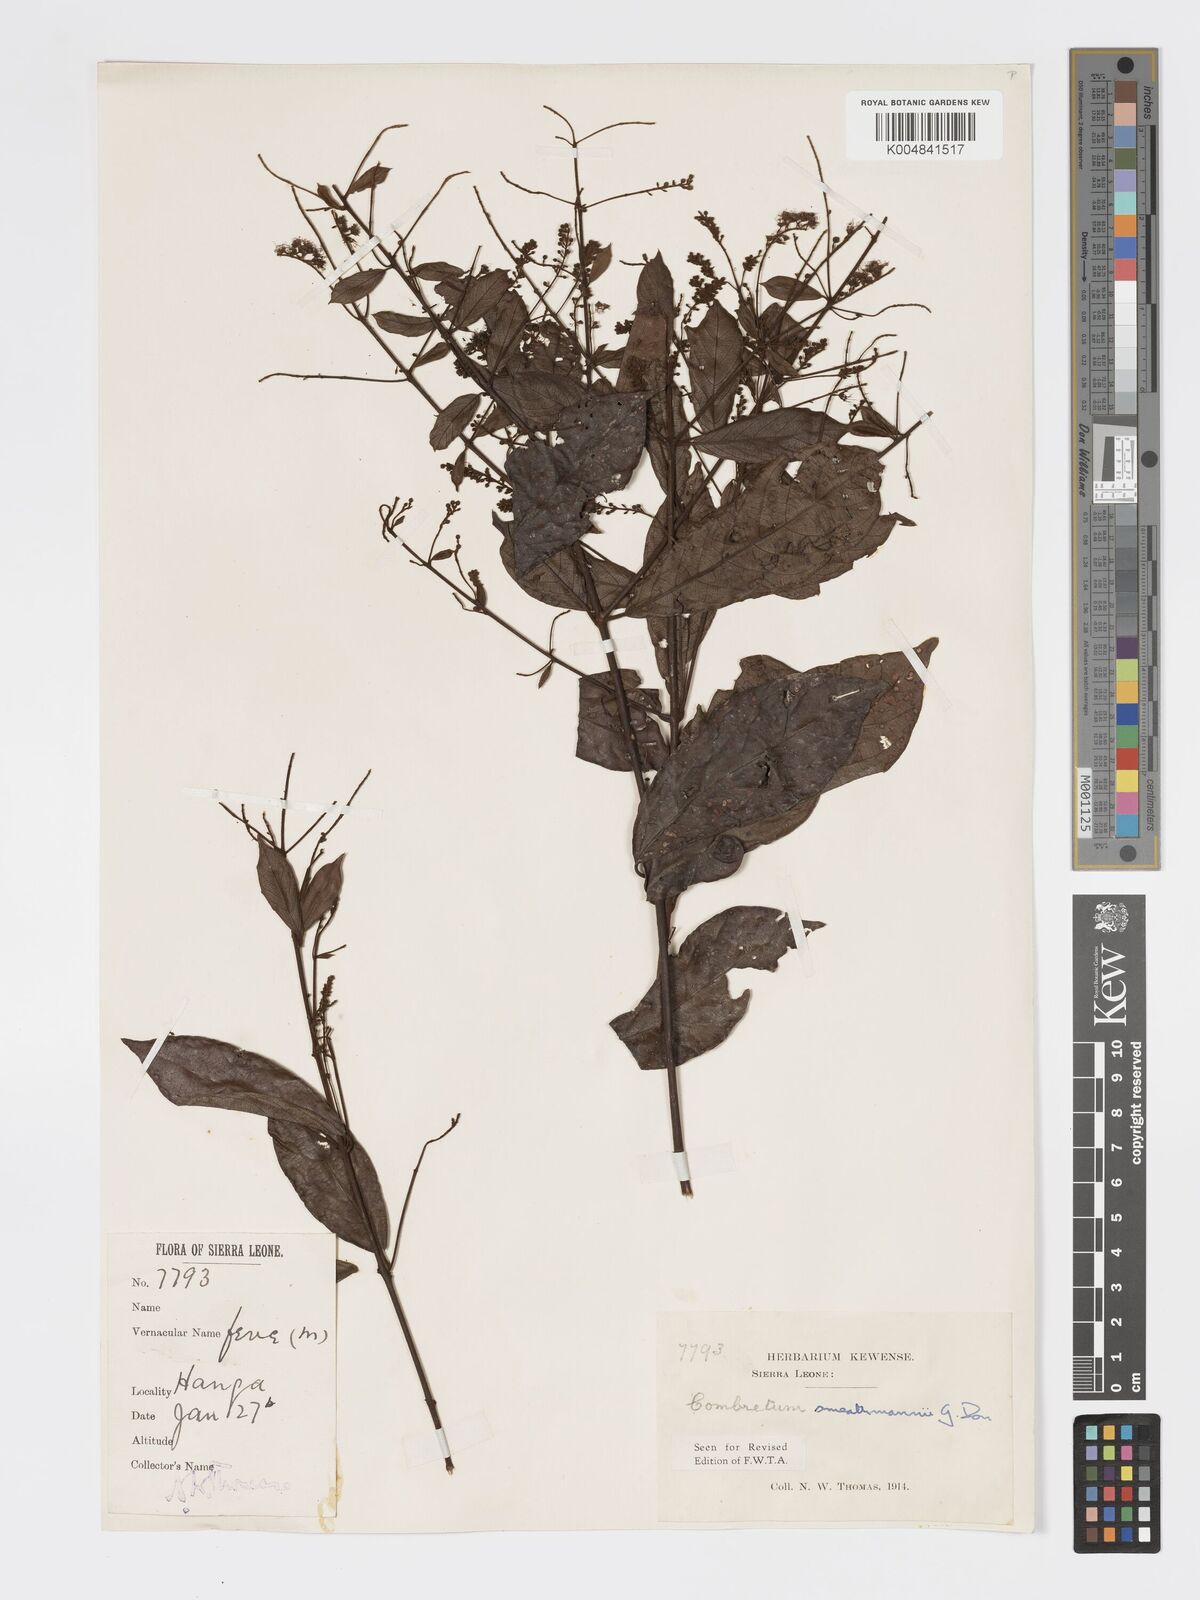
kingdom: Plantae
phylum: Tracheophyta
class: Magnoliopsida
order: Myrtales
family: Combretaceae
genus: Combretum
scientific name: Combretum mucronatum
